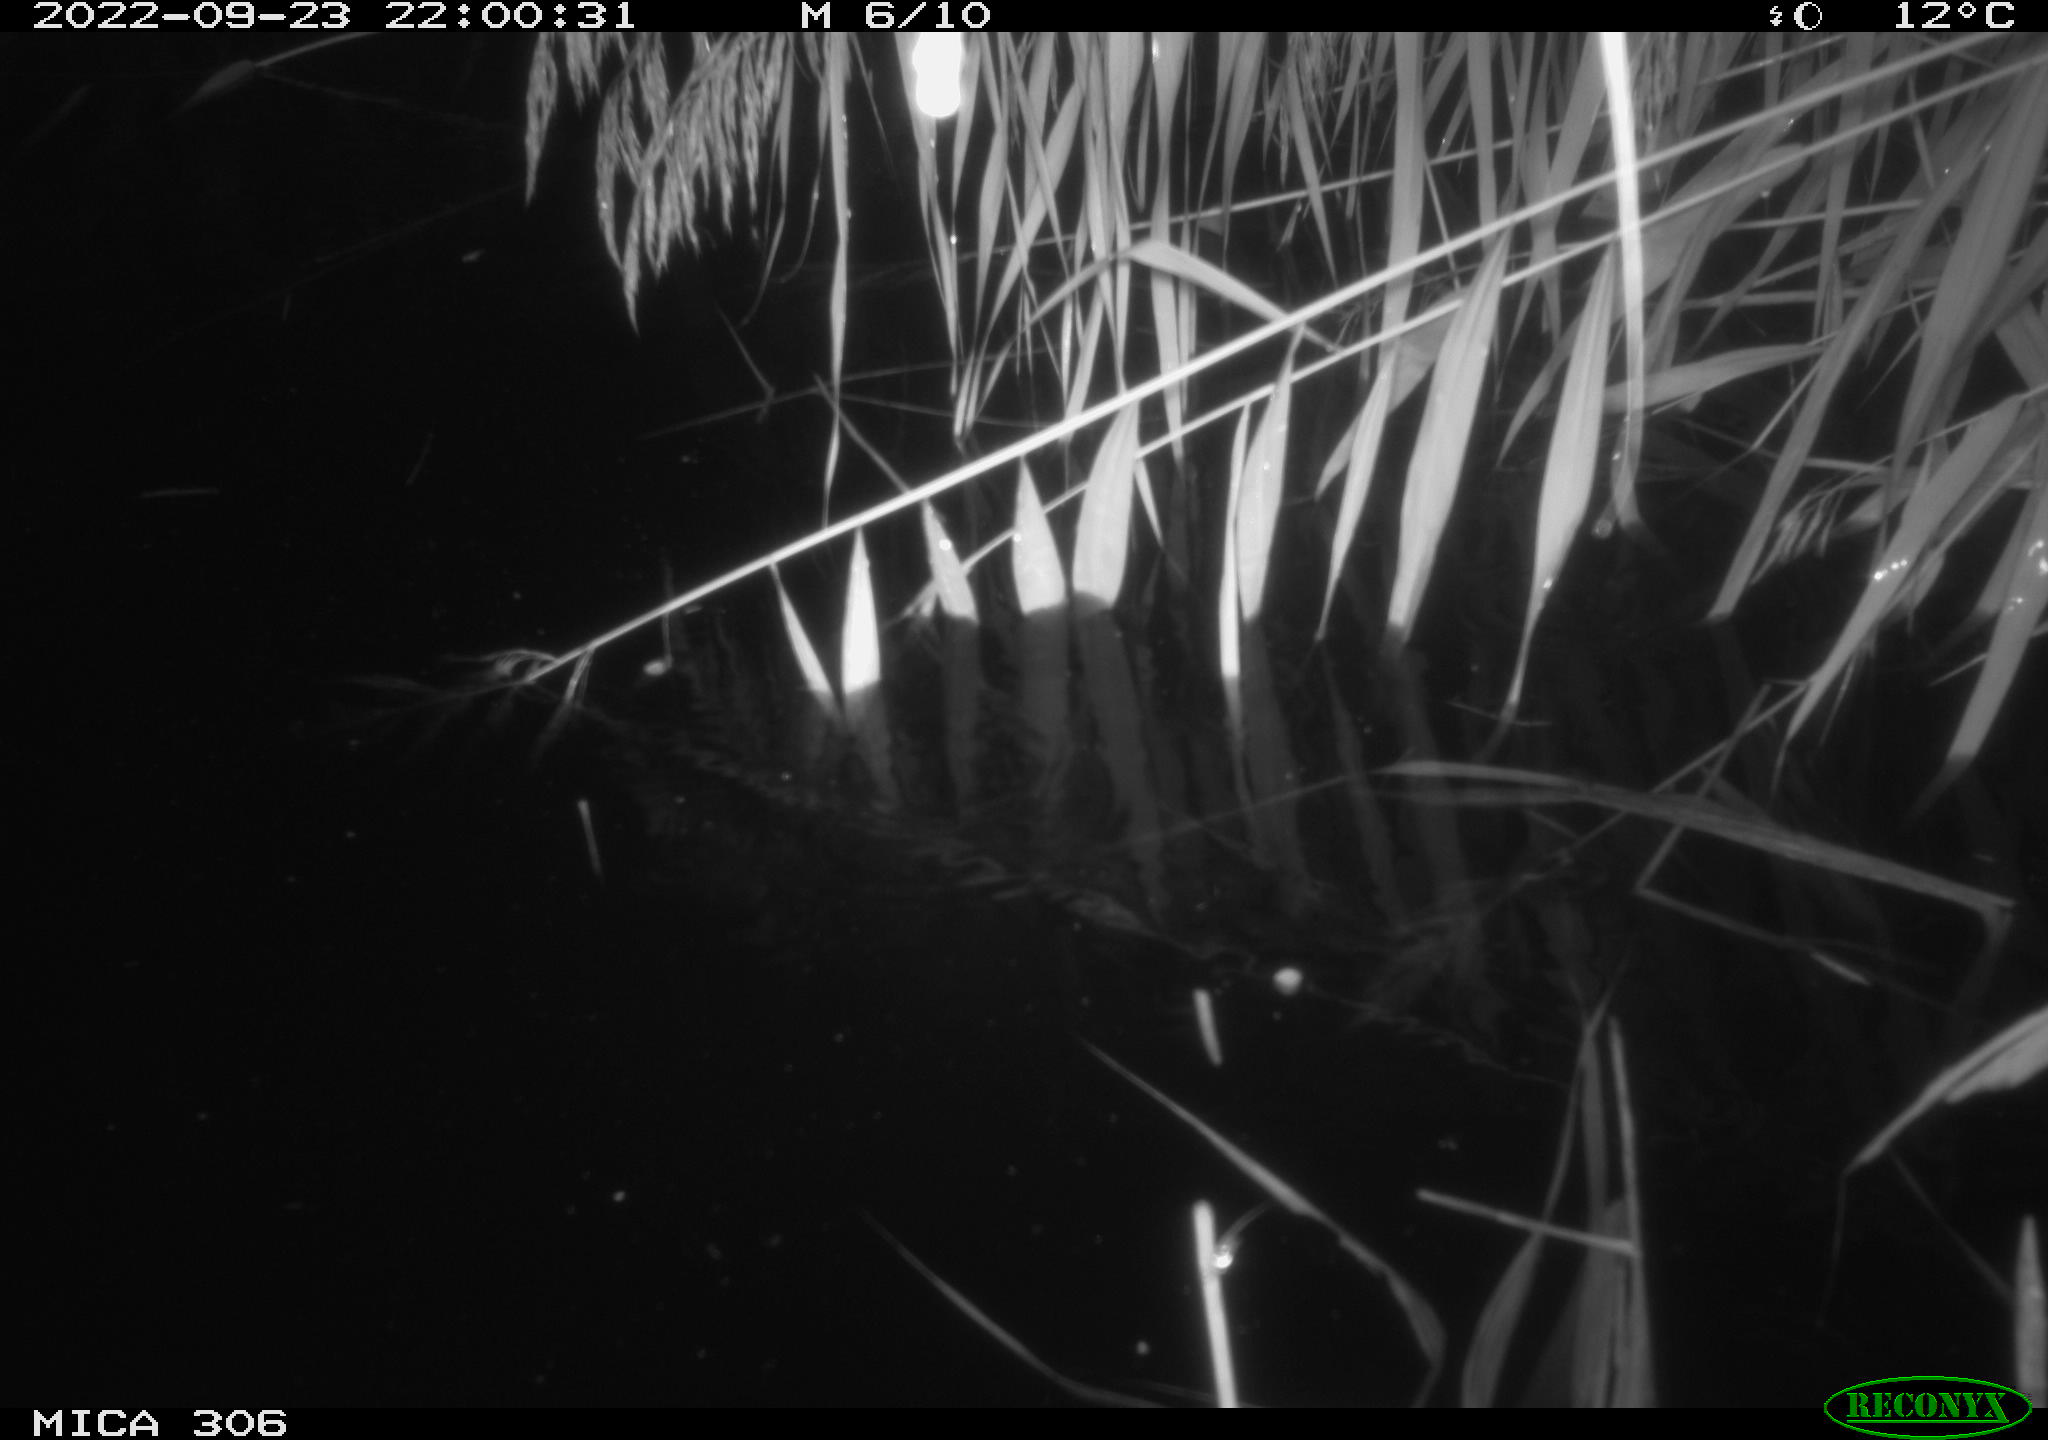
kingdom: Animalia
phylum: Chordata
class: Mammalia
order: Rodentia
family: Muridae
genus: Rattus
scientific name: Rattus norvegicus
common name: Brown rat
